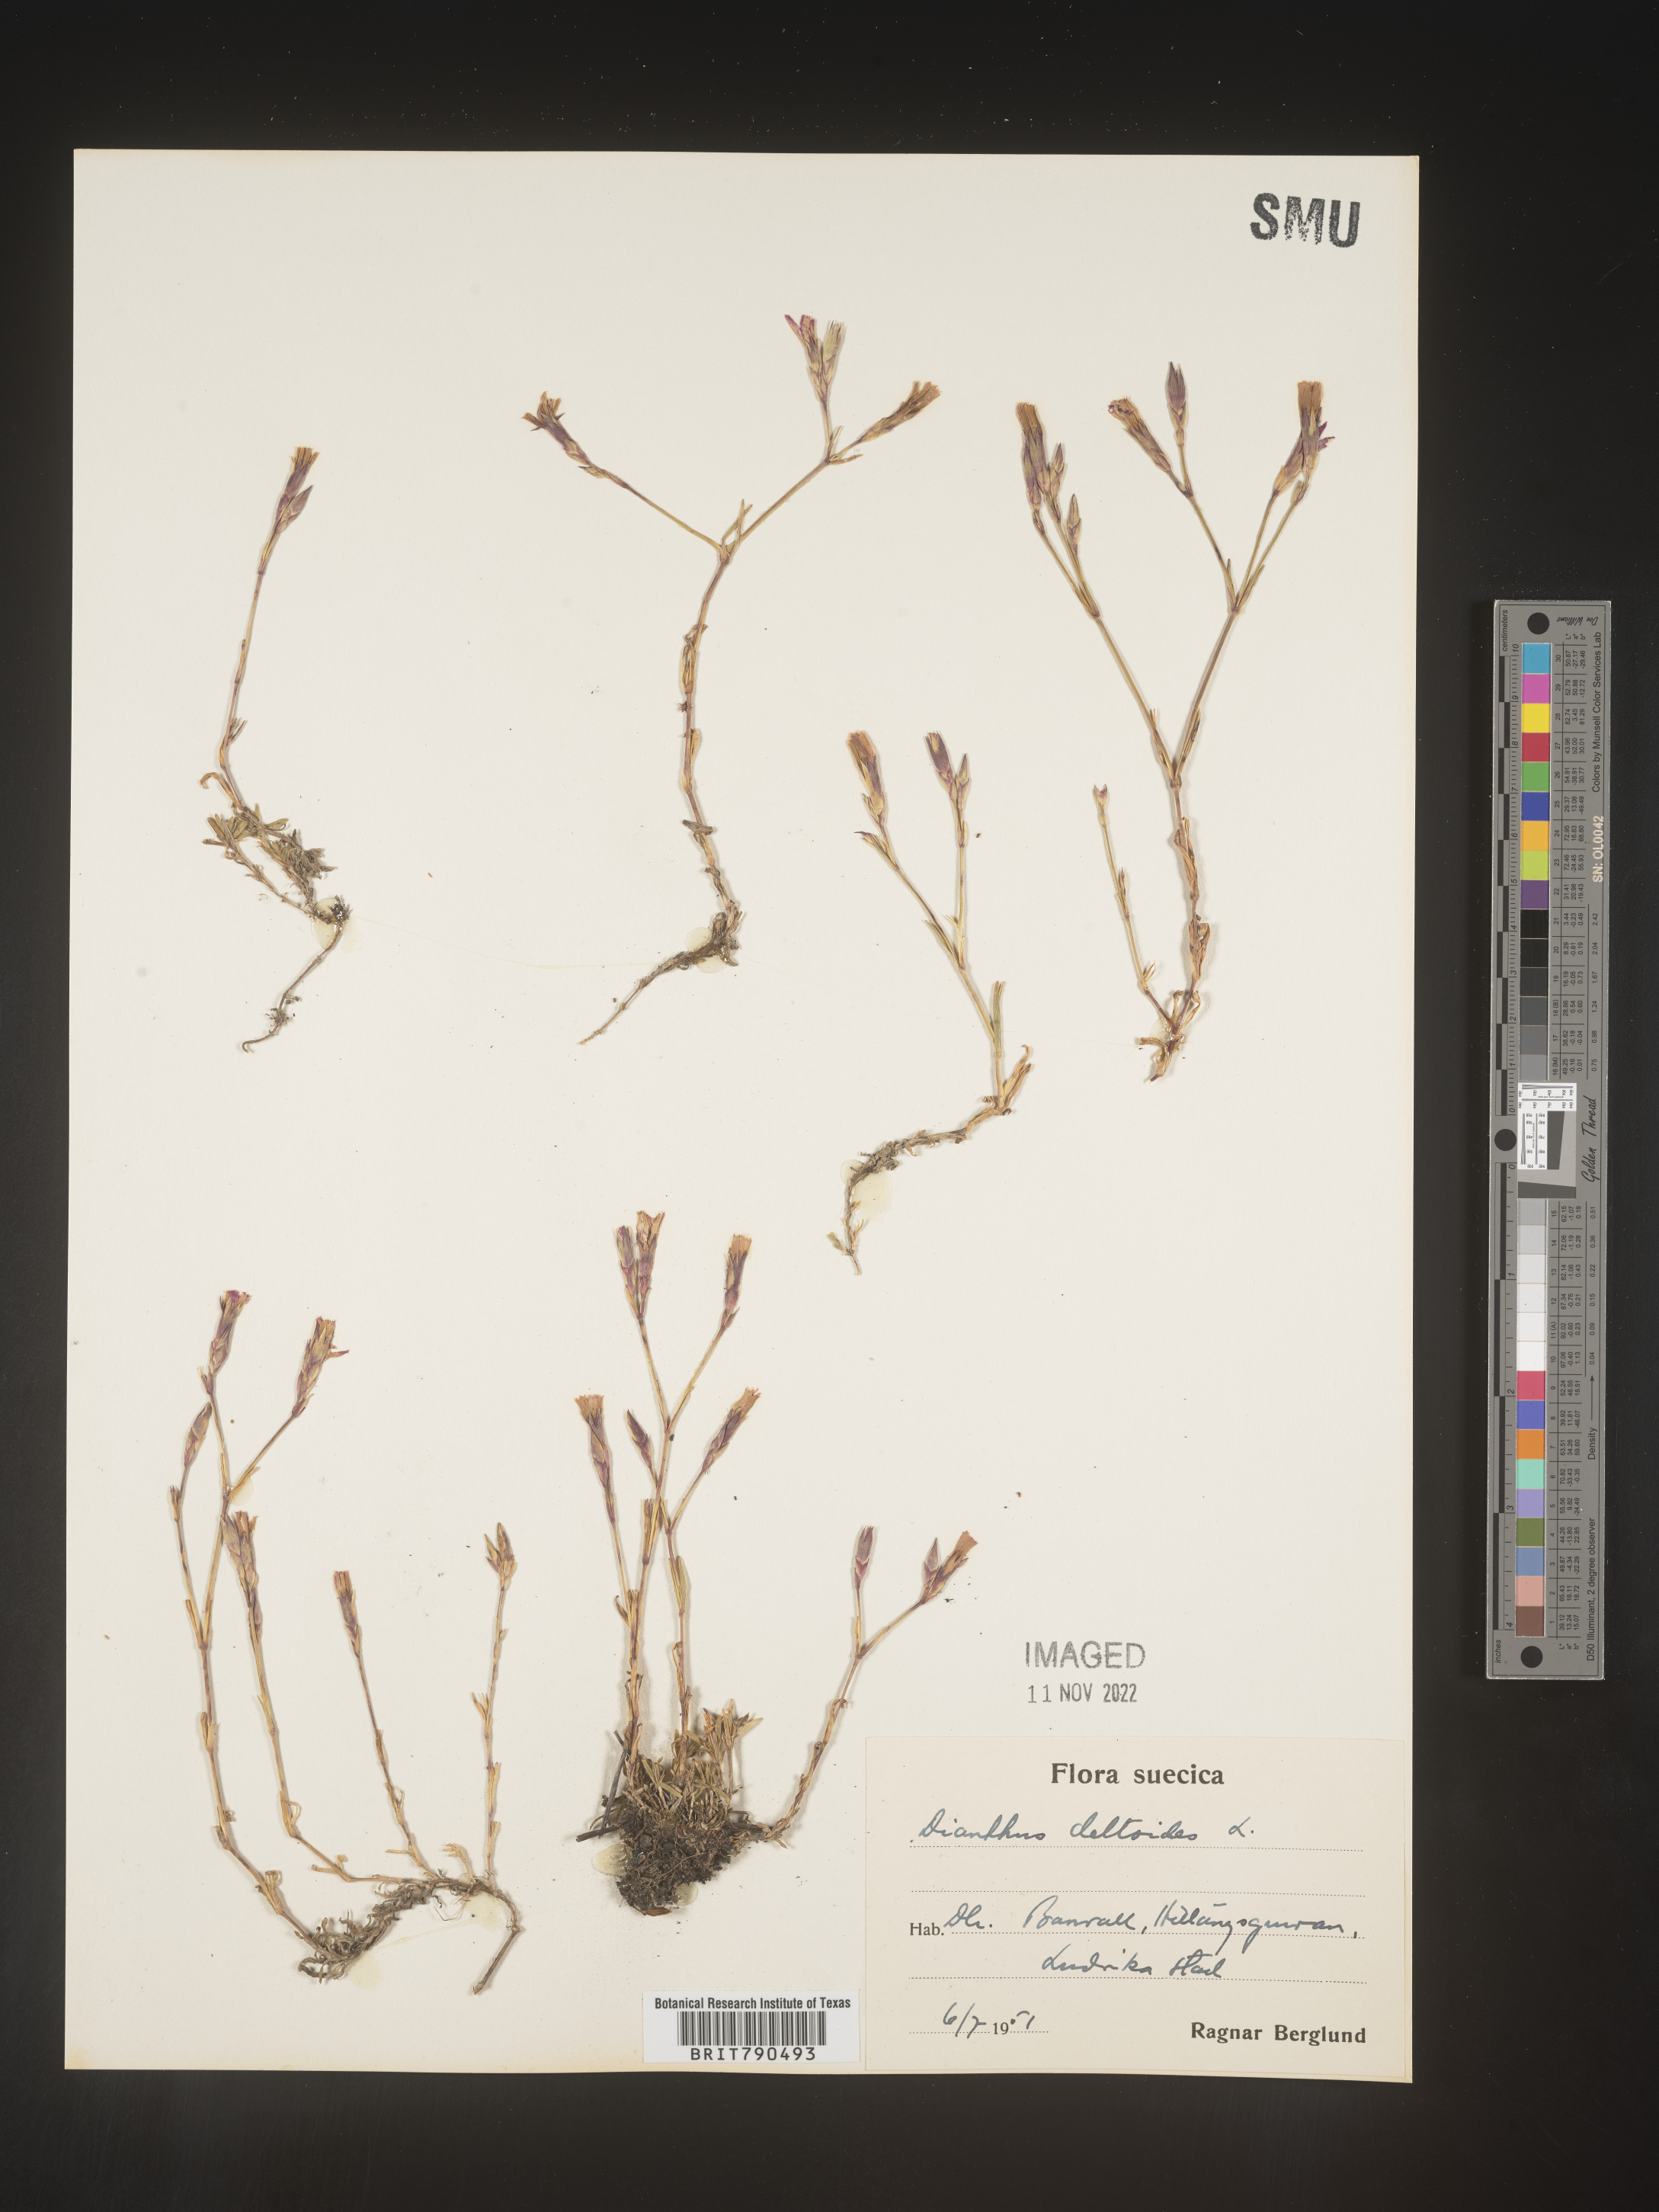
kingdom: Plantae
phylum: Tracheophyta
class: Magnoliopsida
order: Caryophyllales
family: Caryophyllaceae
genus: Dianthus
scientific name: Dianthus deltoides
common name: Maiden pink
